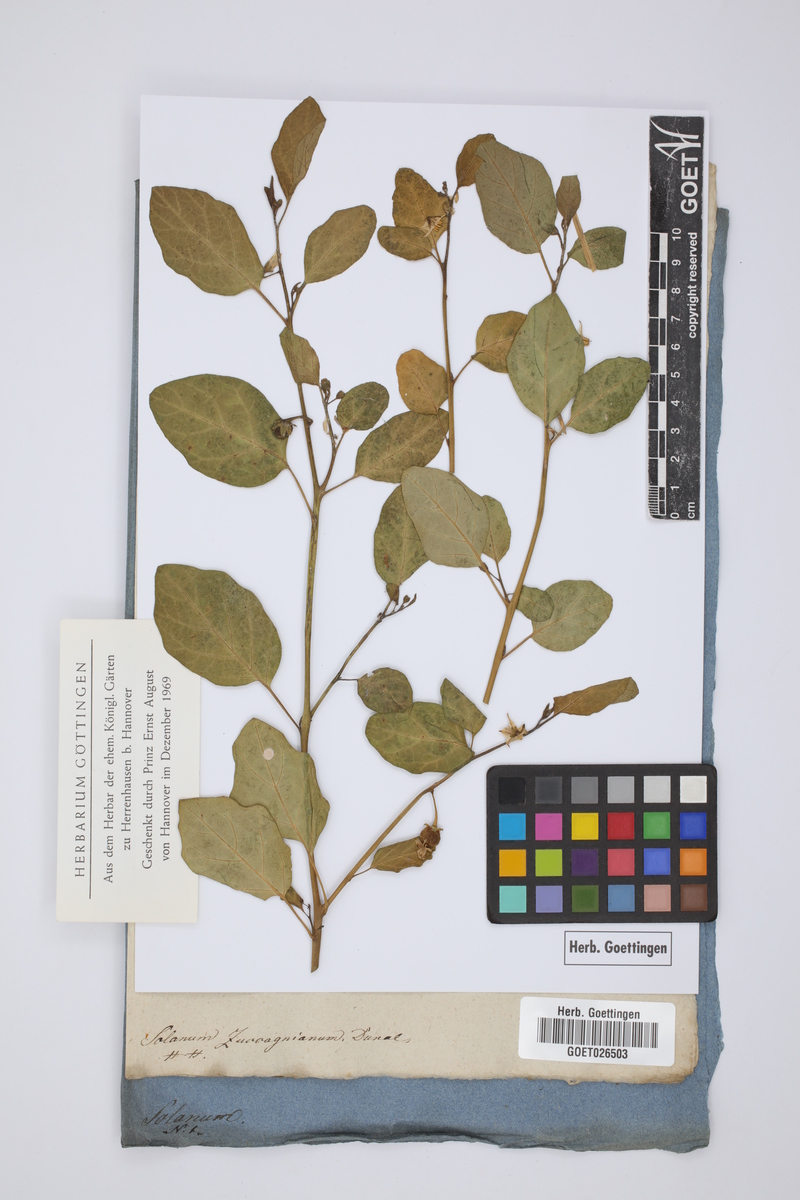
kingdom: Plantae
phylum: Tracheophyta
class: Magnoliopsida
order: Solanales
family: Solanaceae
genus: Solanum
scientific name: Solanum aethiopicum
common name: Gilo
